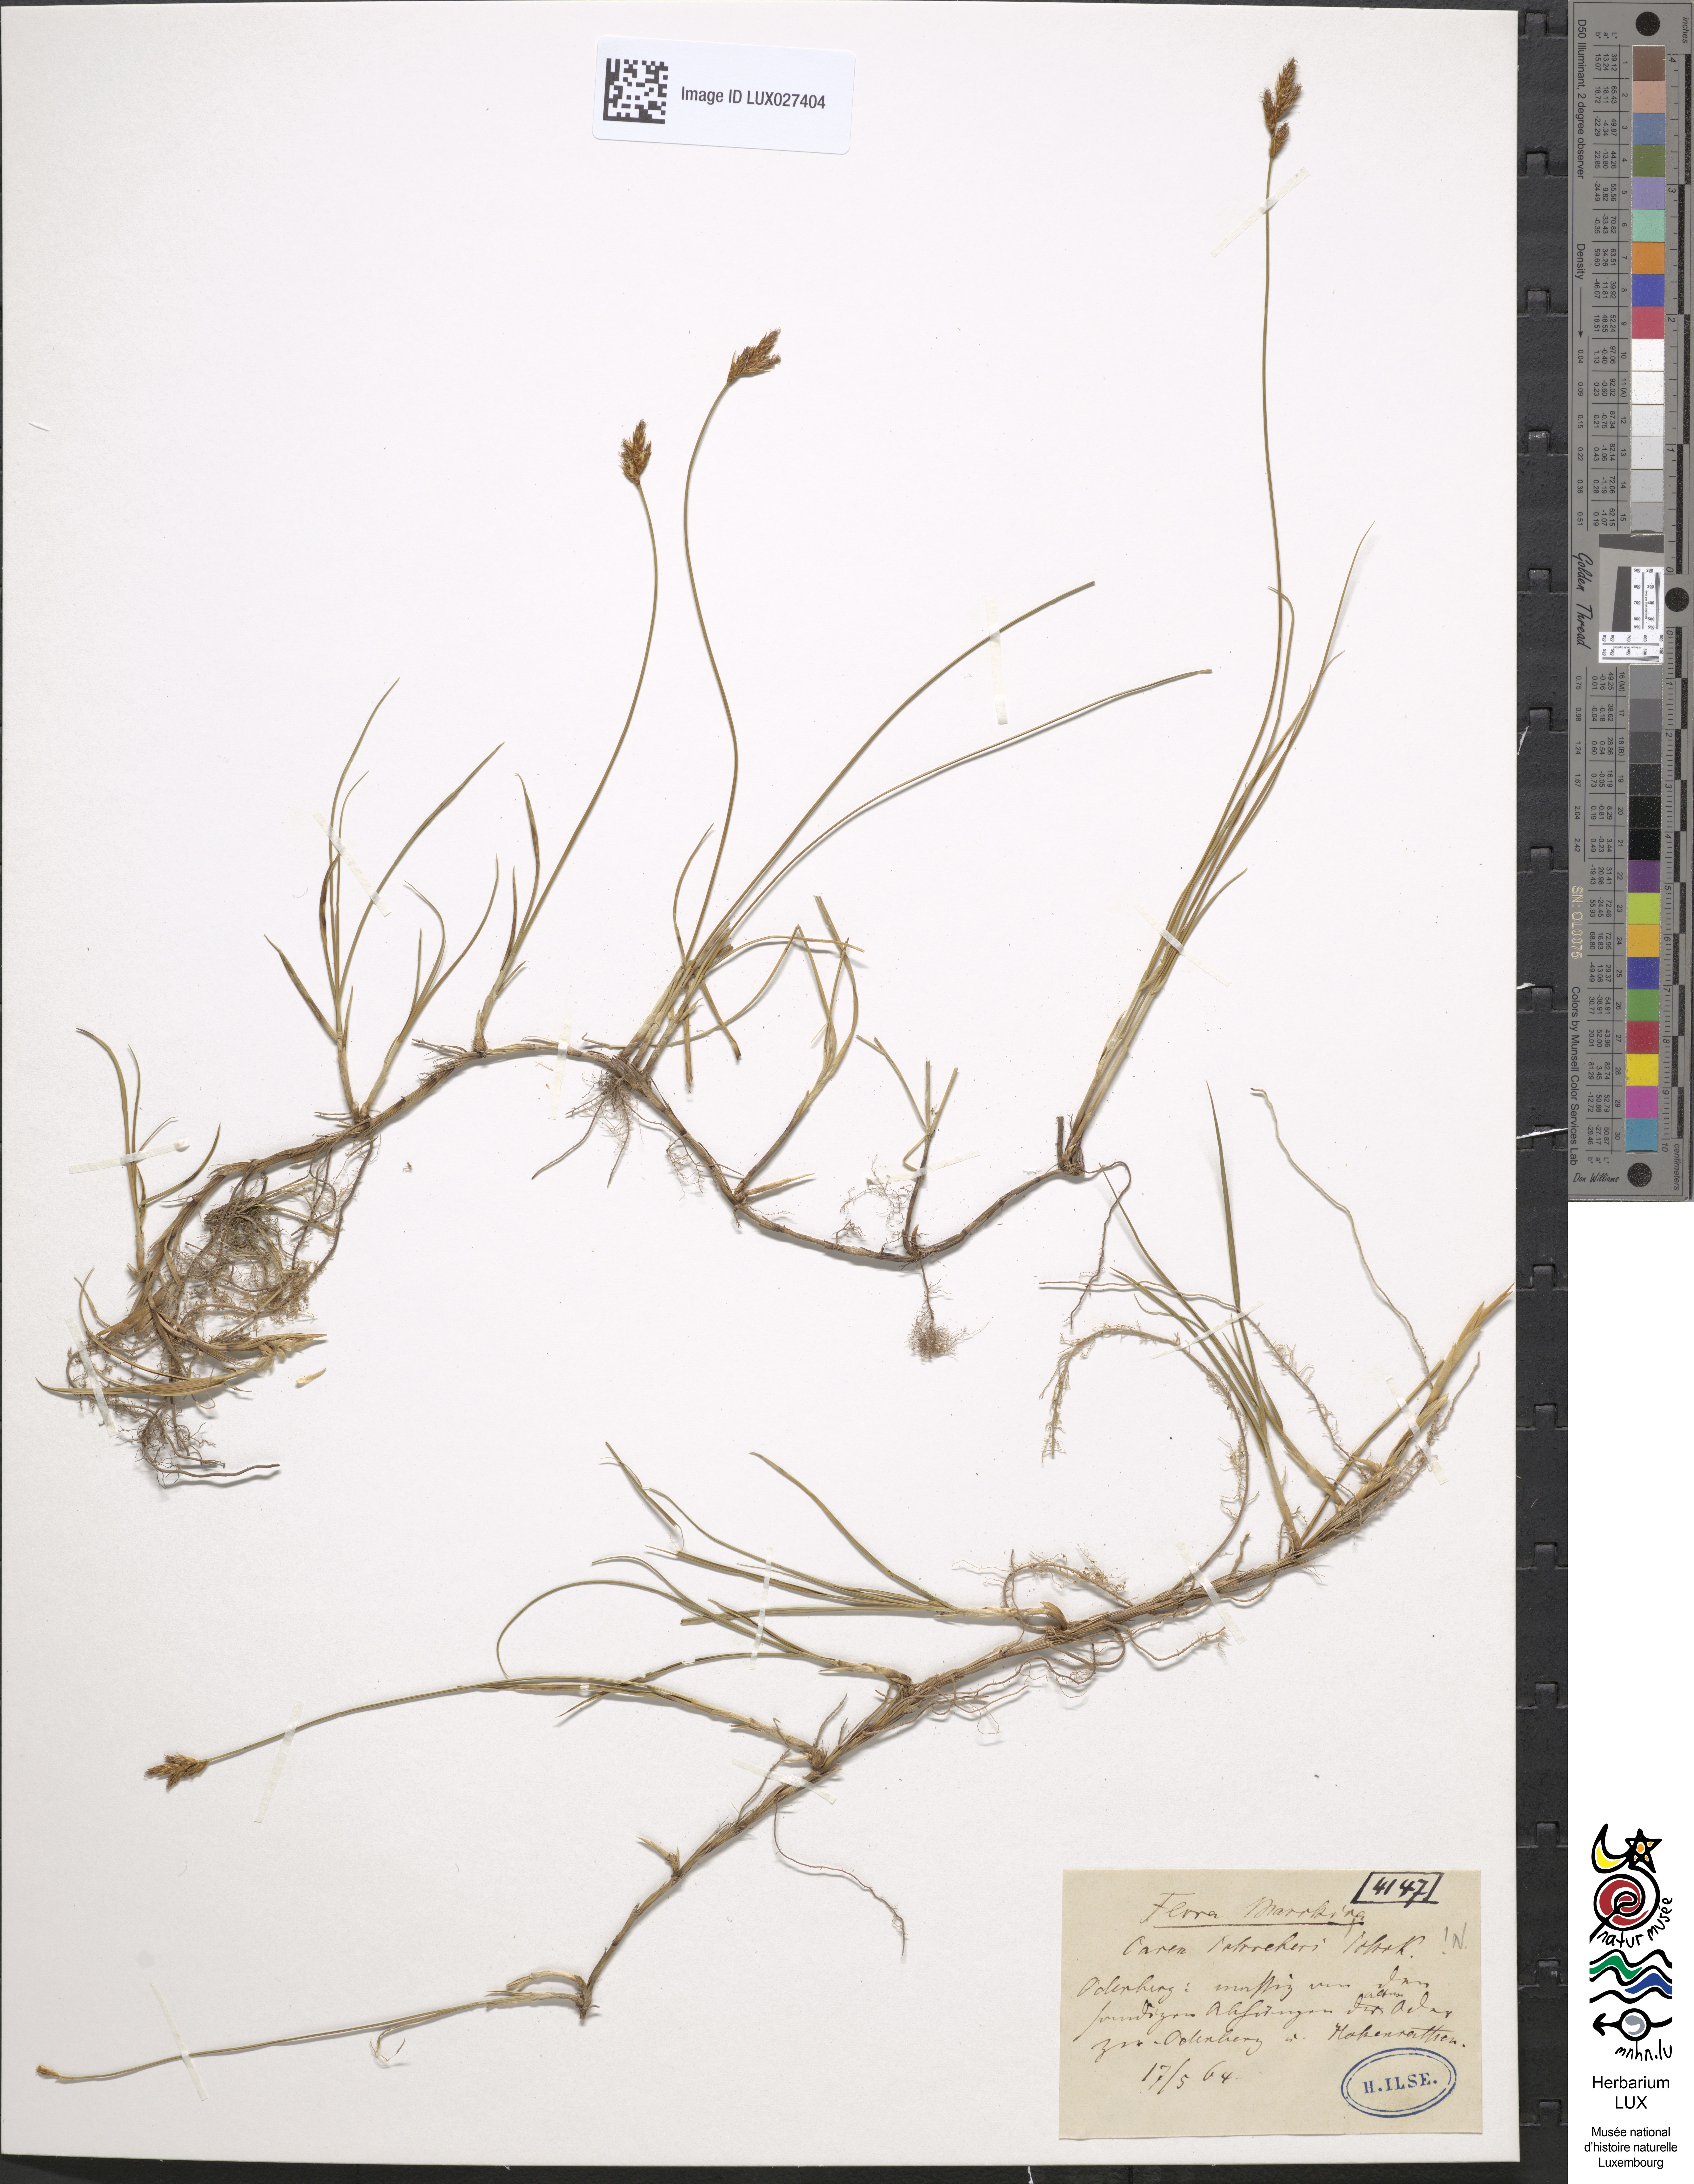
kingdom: Plantae
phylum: Tracheophyta
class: Liliopsida
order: Poales
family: Cyperaceae
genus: Carex
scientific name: Carex praecox
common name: Early sedge
